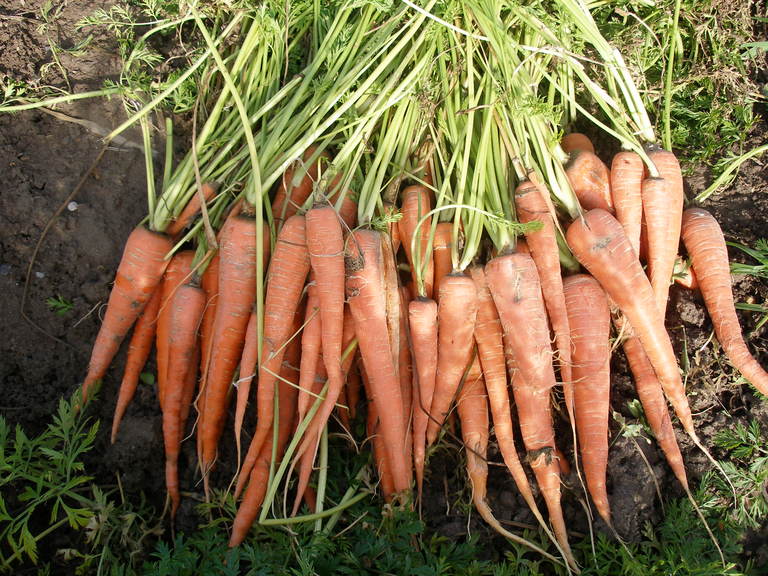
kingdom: Plantae
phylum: Tracheophyta
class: Magnoliopsida
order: Apiales
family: Apiaceae
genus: Daucus
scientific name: Daucus carota
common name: Wild carrot
